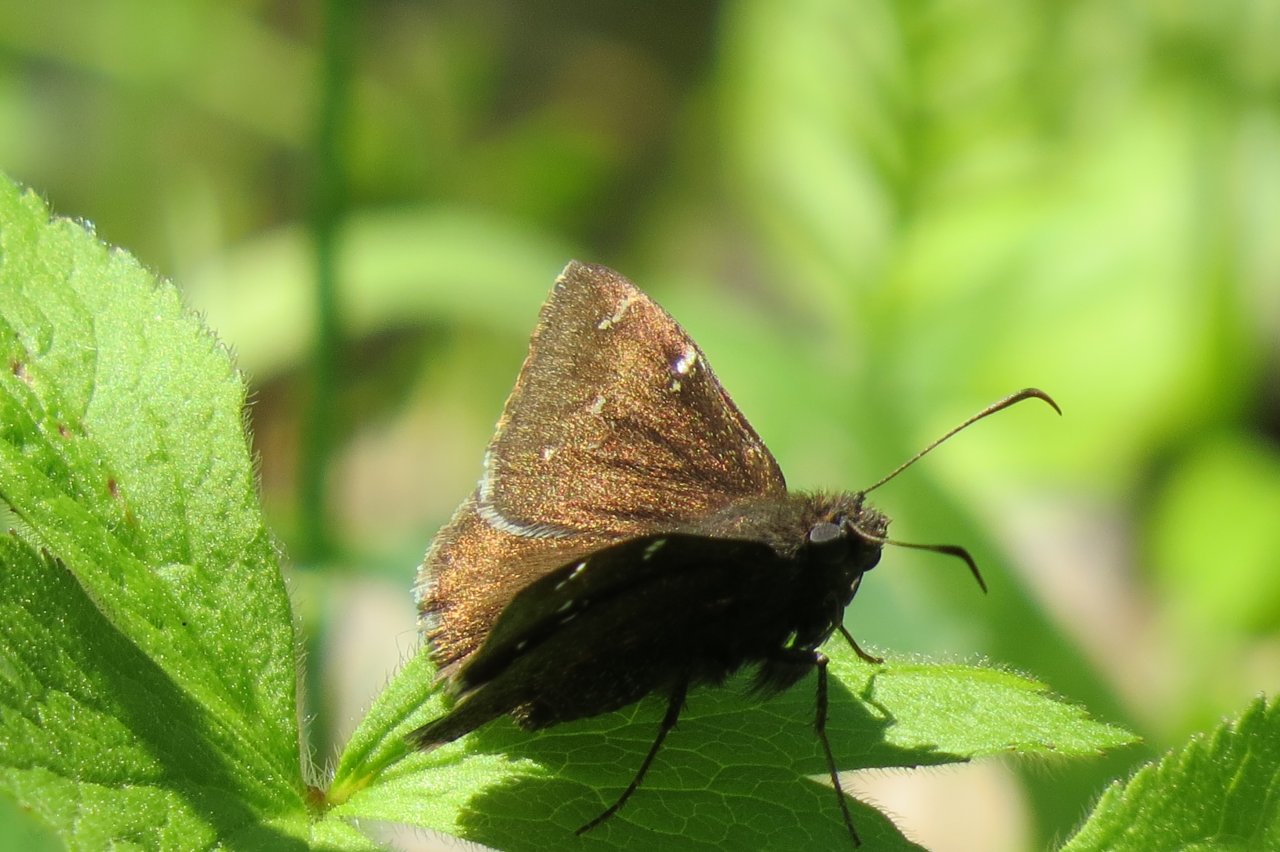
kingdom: Animalia
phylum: Arthropoda
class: Insecta
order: Lepidoptera
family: Hesperiidae
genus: Autochton
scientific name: Autochton
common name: Northern Cloudywing
